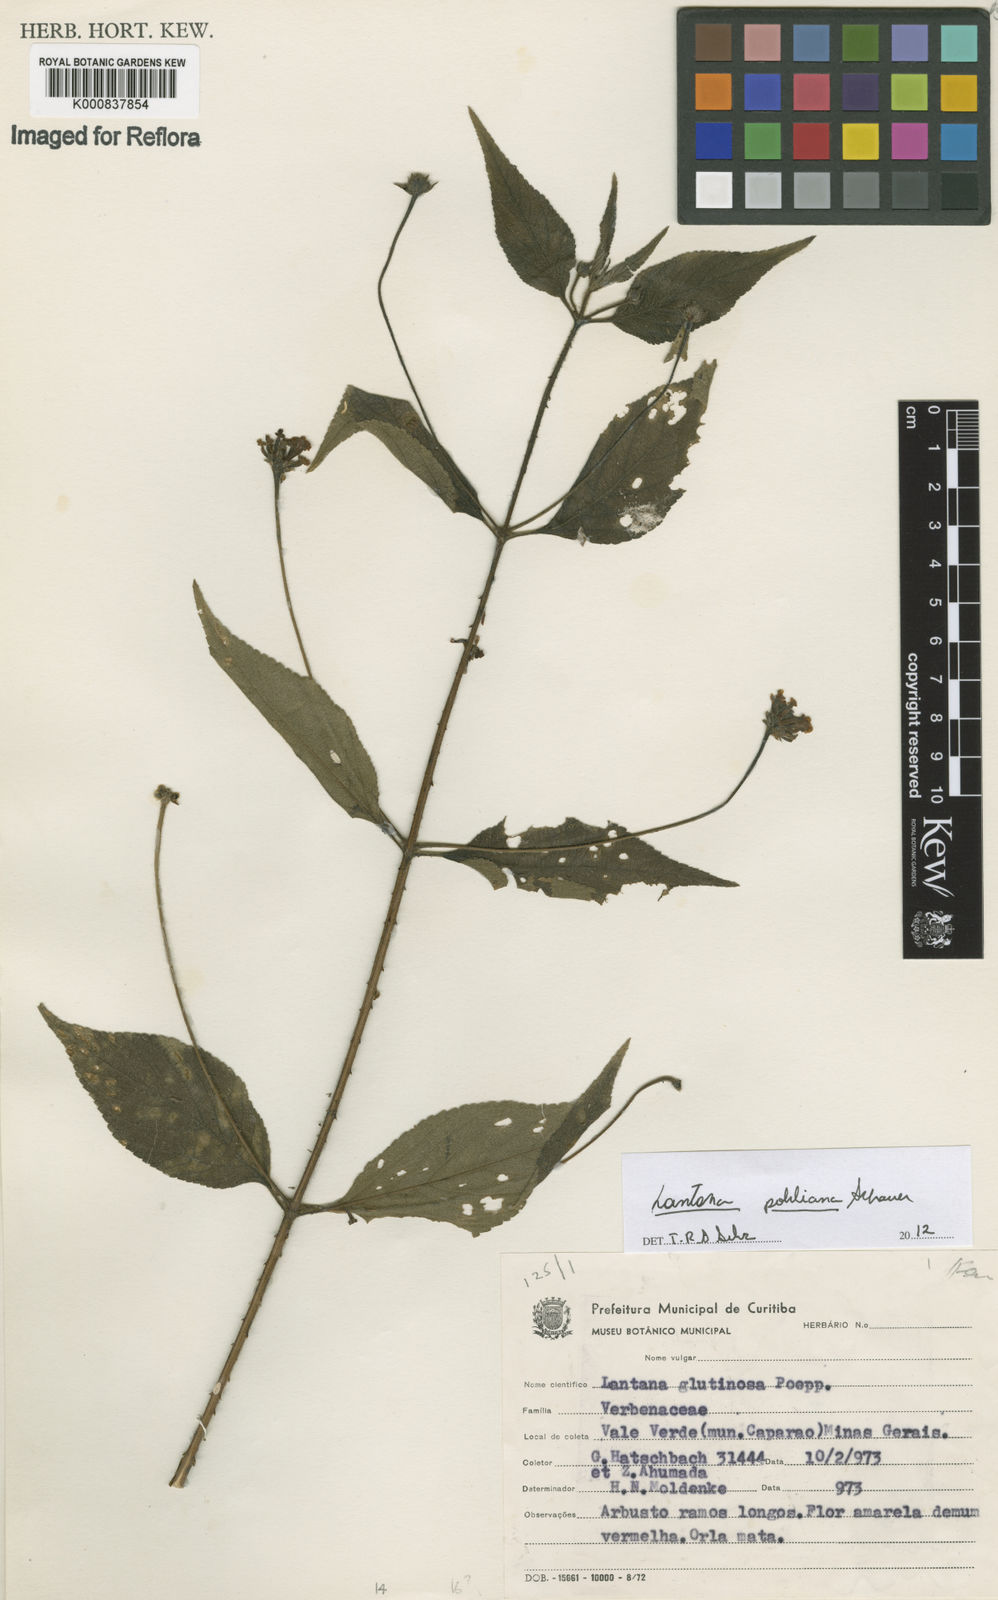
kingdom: Plantae
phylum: Tracheophyta
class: Magnoliopsida
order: Lamiales
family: Verbenaceae
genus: Lantana
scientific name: Lantana pohliana
